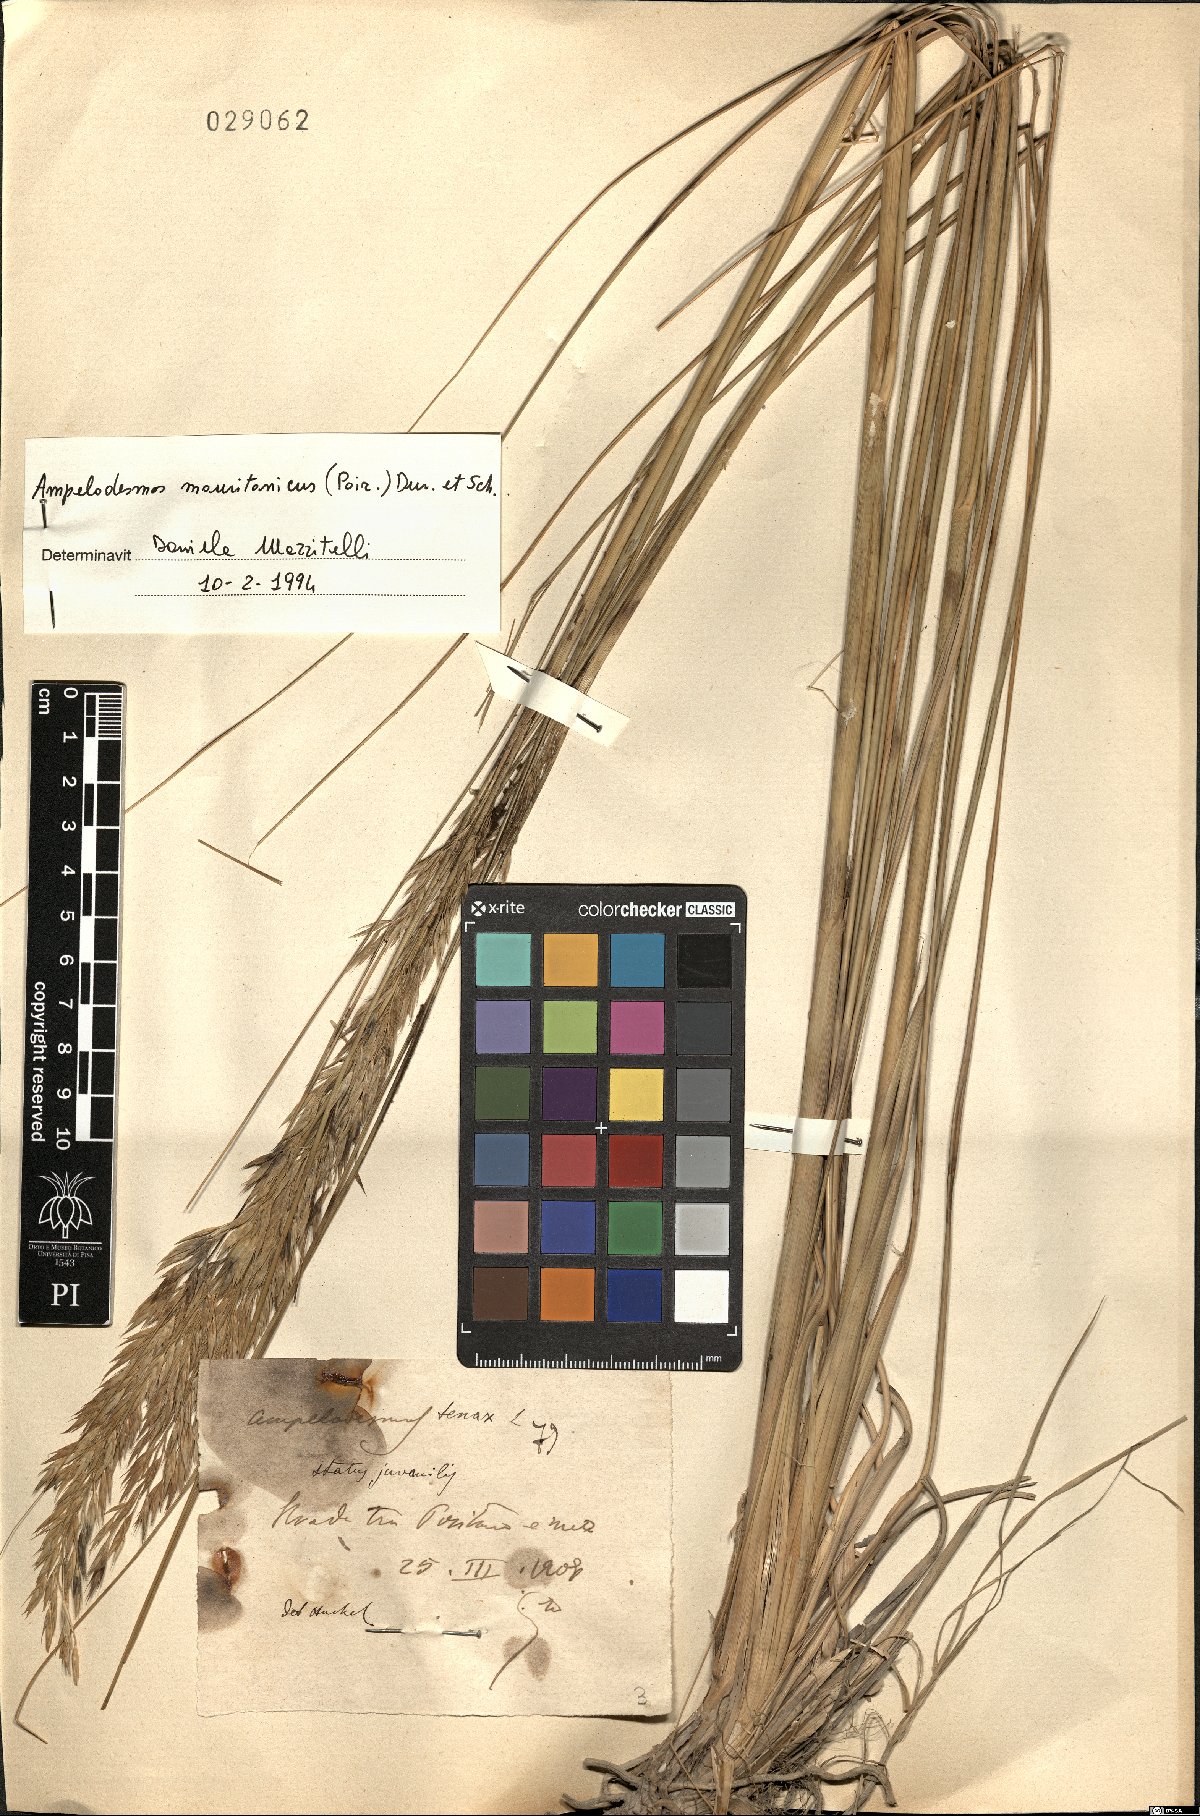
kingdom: Plantae
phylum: Tracheophyta
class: Liliopsida
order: Poales
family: Poaceae
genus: Ampelodesmos
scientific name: Ampelodesmos mauritanicus
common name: Mauritanian grass
